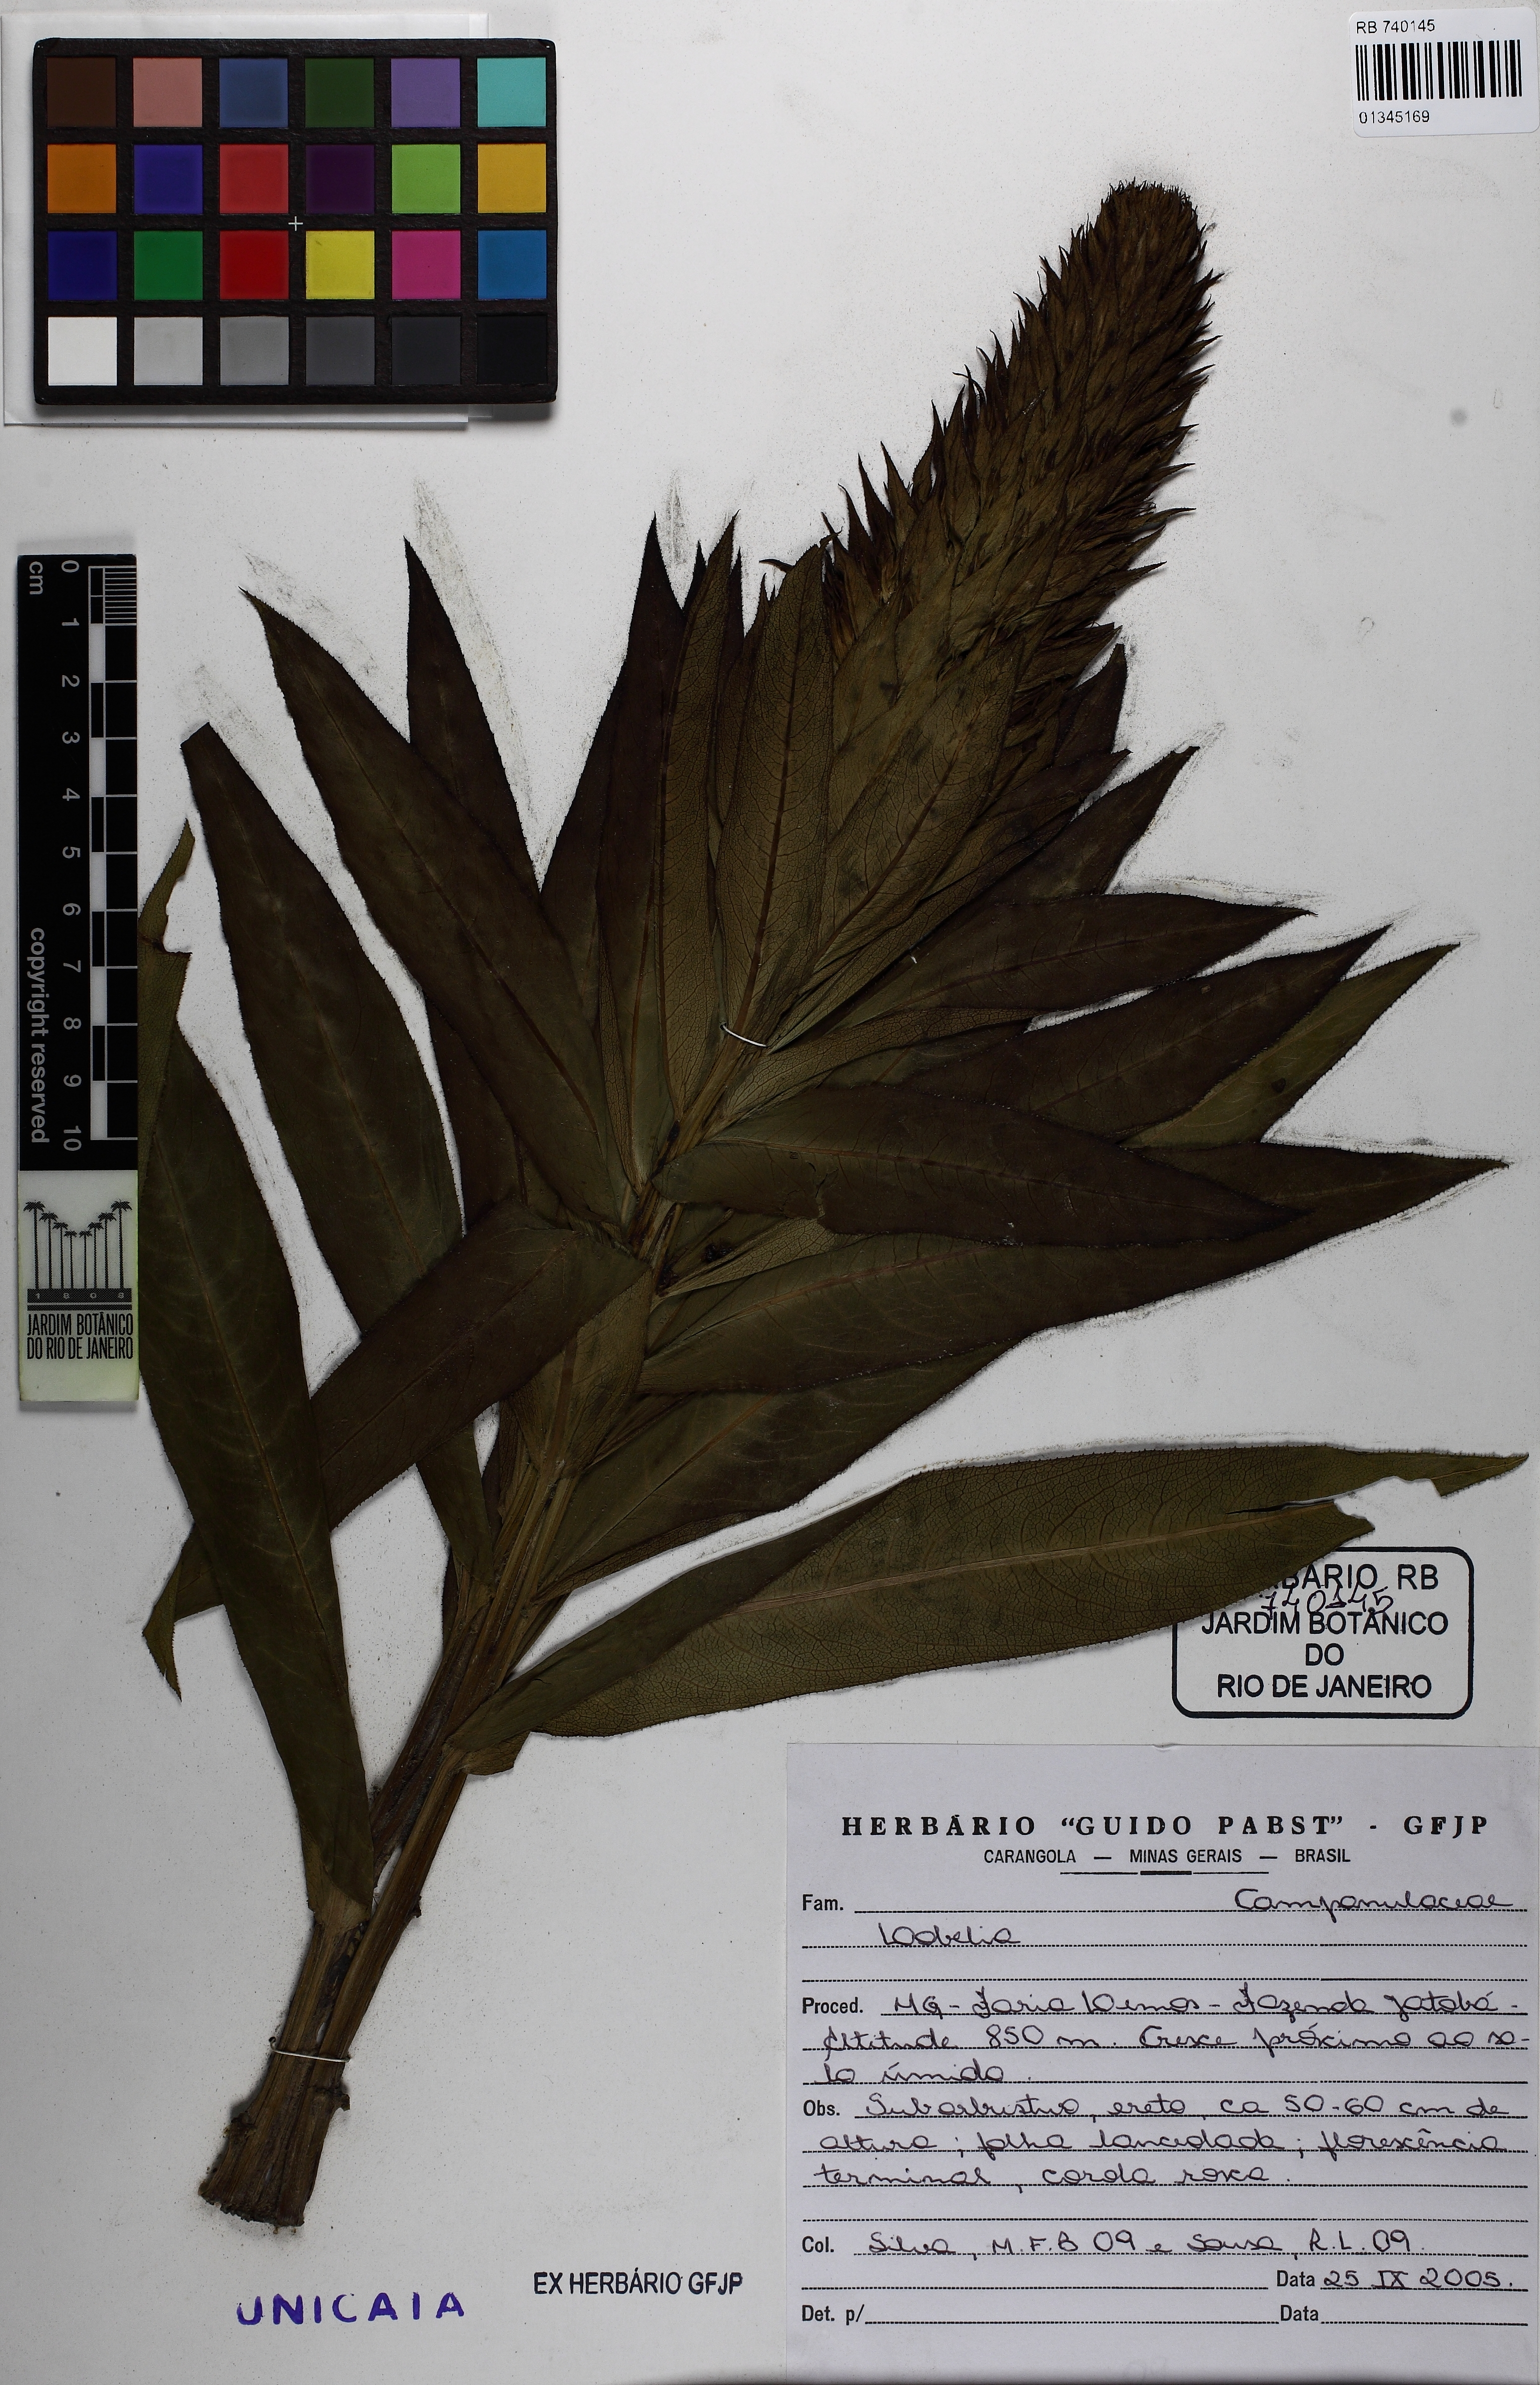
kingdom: Plantae
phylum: Tracheophyta
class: Magnoliopsida
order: Asterales
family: Campanulaceae
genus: Lobelia
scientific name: Lobelia fistulosa
